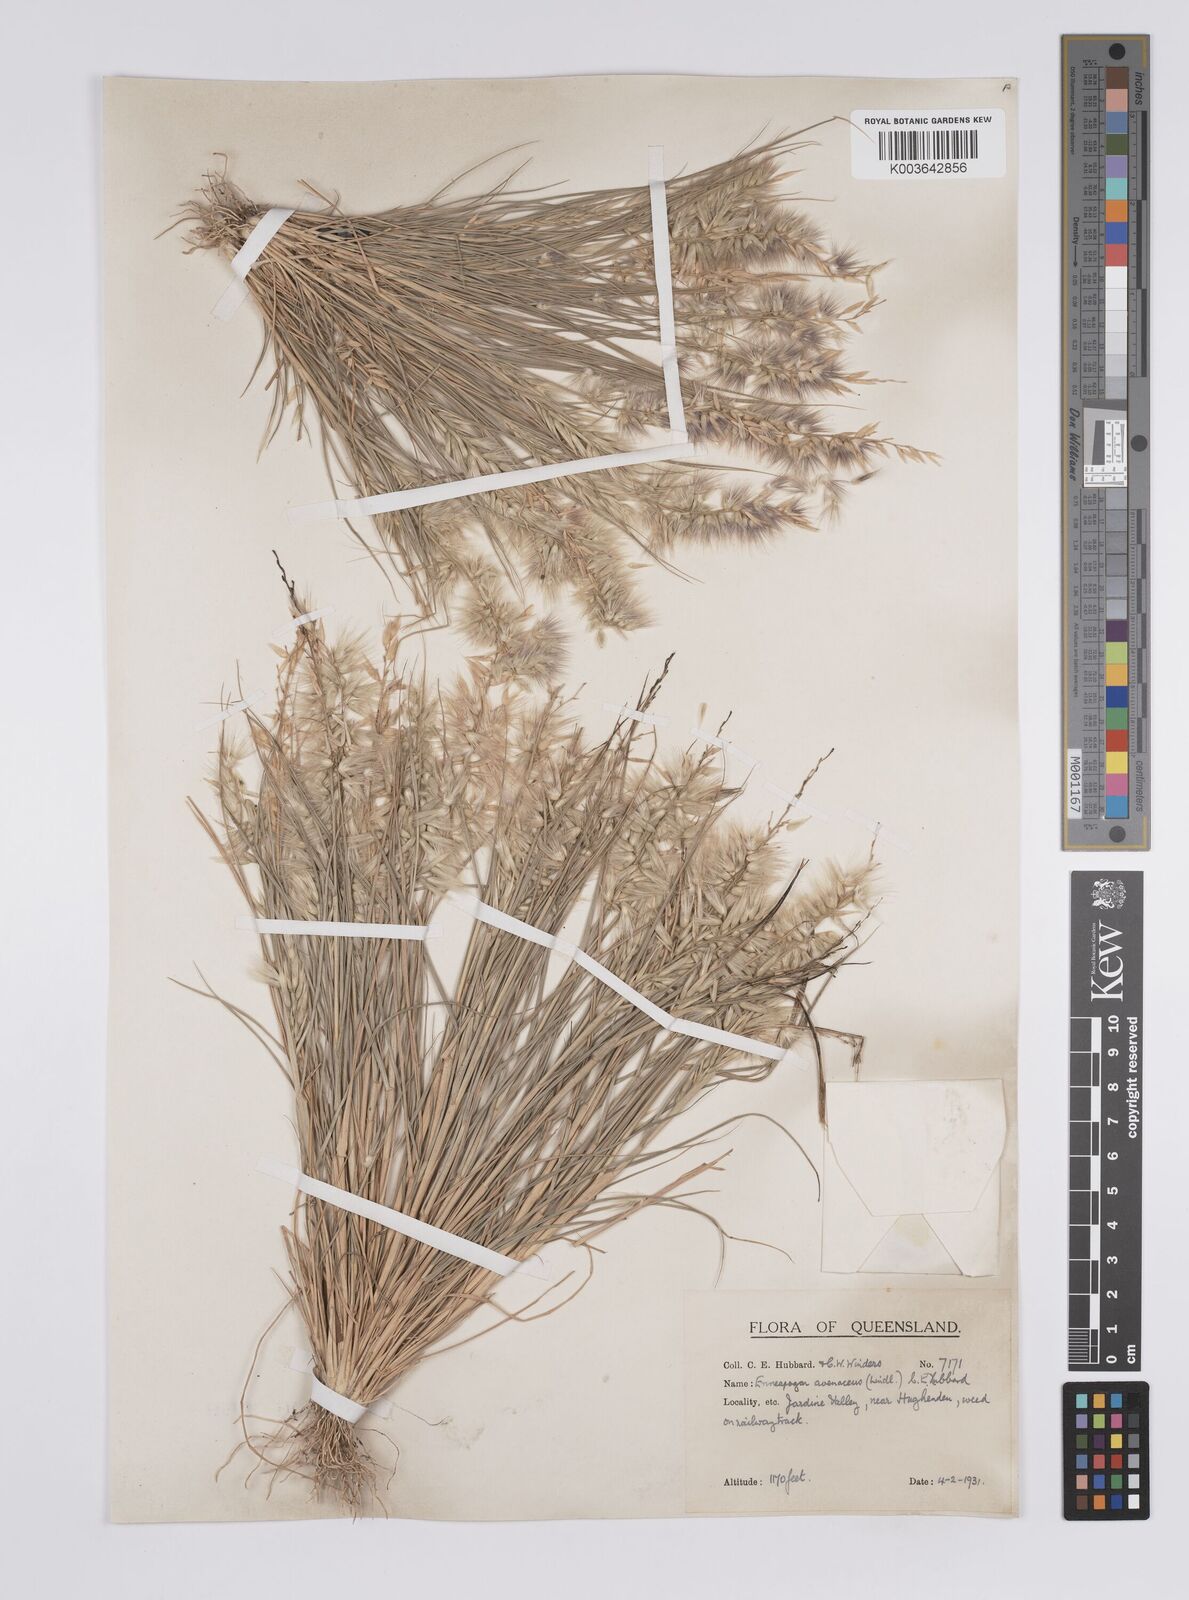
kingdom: Plantae
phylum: Tracheophyta
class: Liliopsida
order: Poales
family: Poaceae
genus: Enneapogon
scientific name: Enneapogon avenaceus
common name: Hairy oat grass
